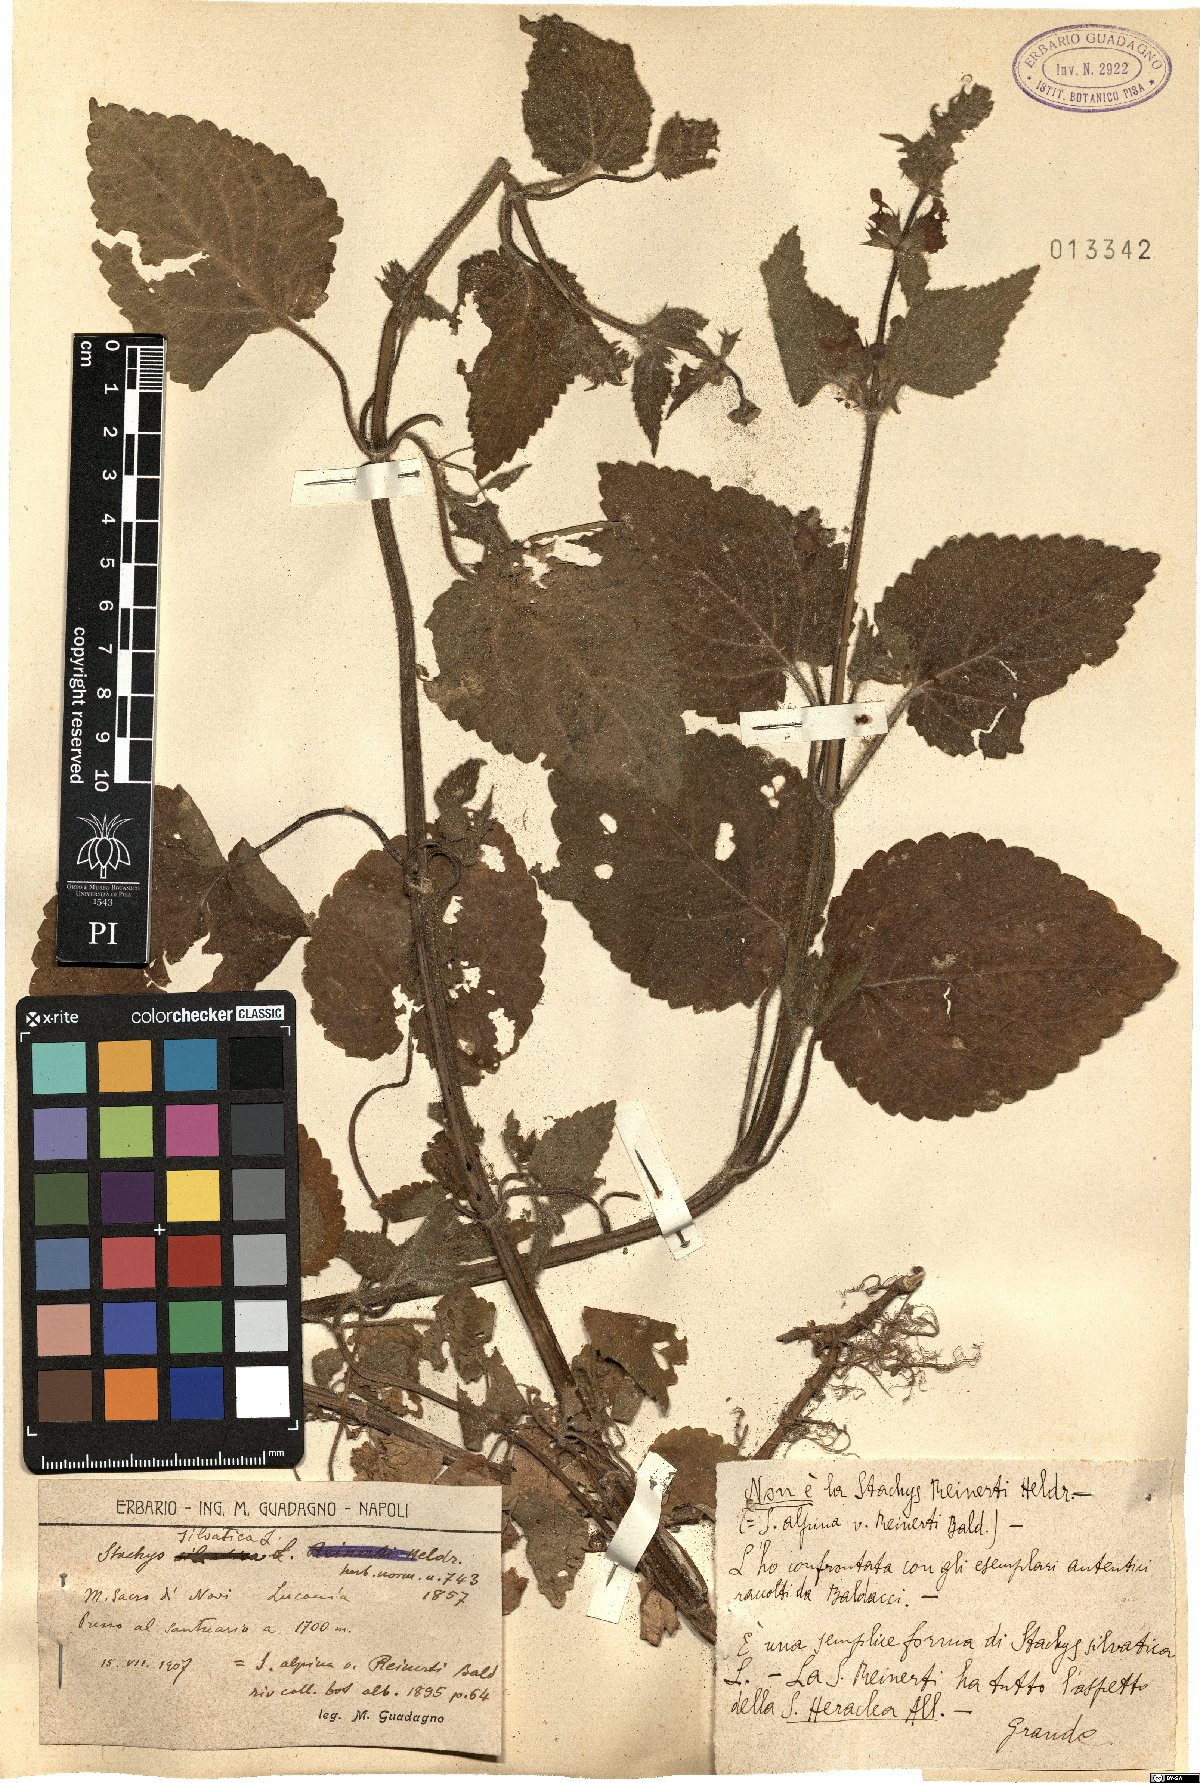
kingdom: Plantae
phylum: Tracheophyta
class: Magnoliopsida
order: Lamiales
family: Lamiaceae
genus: Stachys
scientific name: Stachys sylvatica
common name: Hedge woundwort
